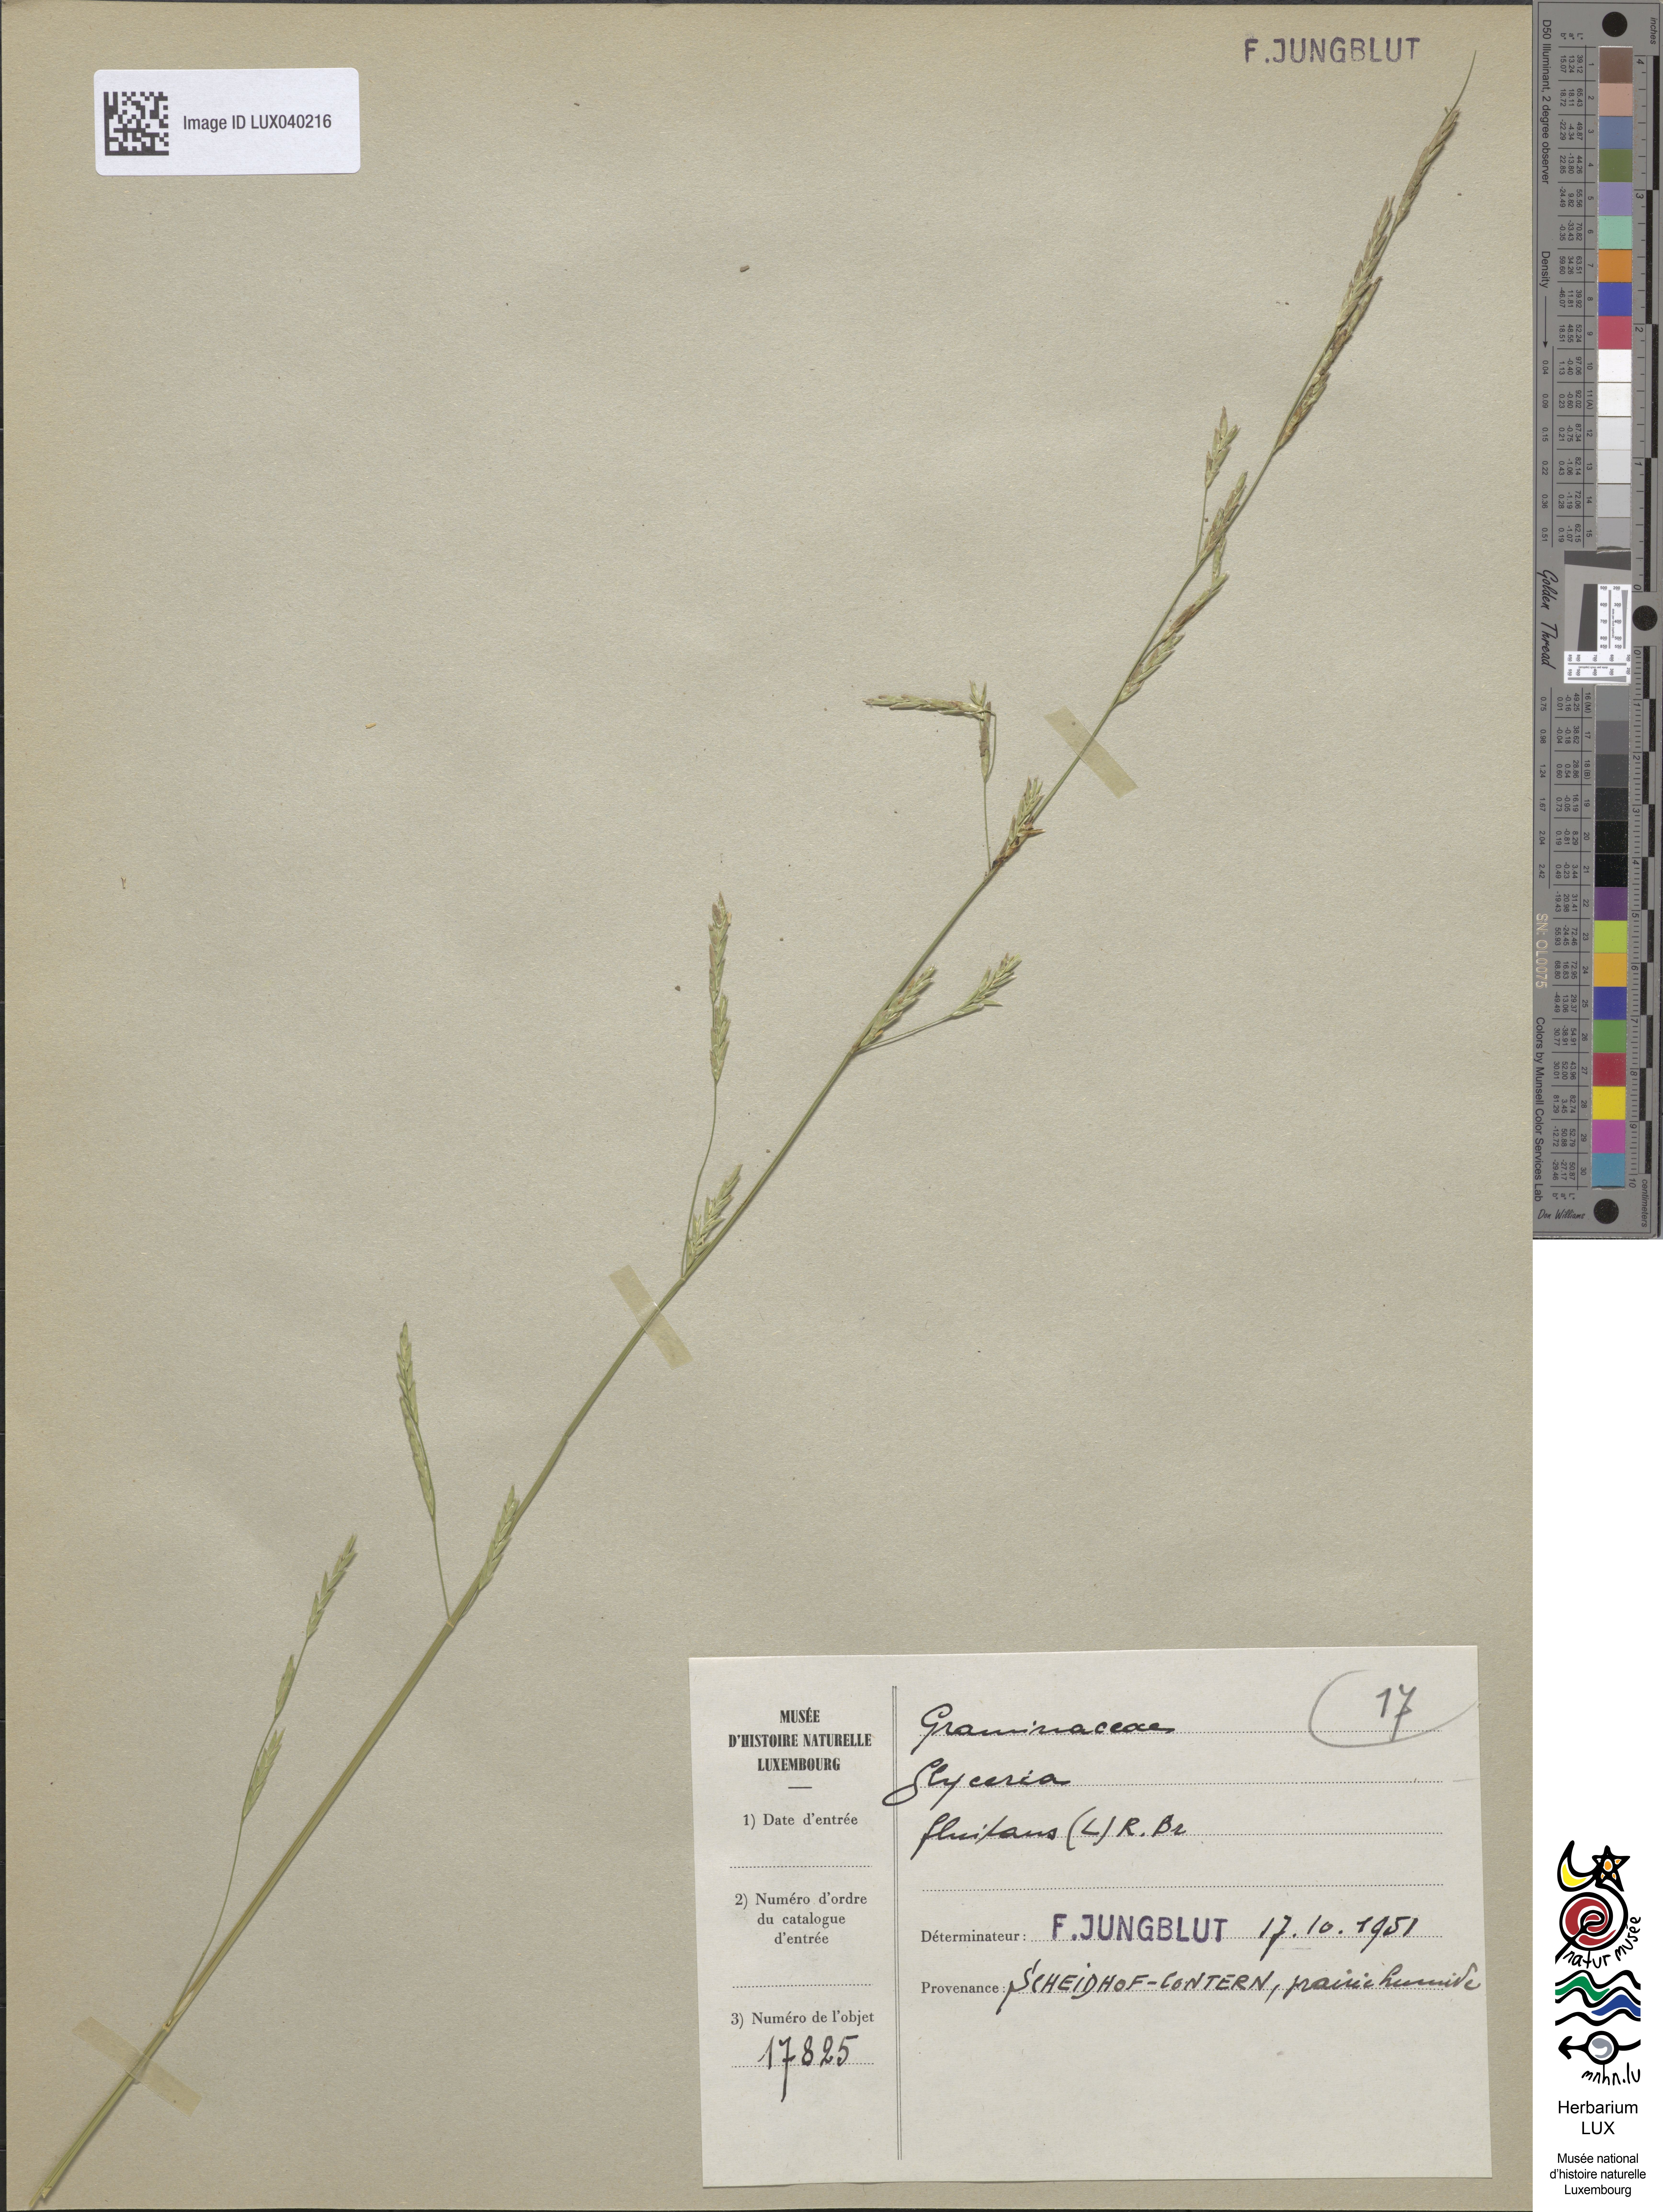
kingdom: Plantae
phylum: Tracheophyta
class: Liliopsida
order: Poales
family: Poaceae
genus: Glyceria
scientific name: Glyceria fluitans
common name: Floating sweet-grass
